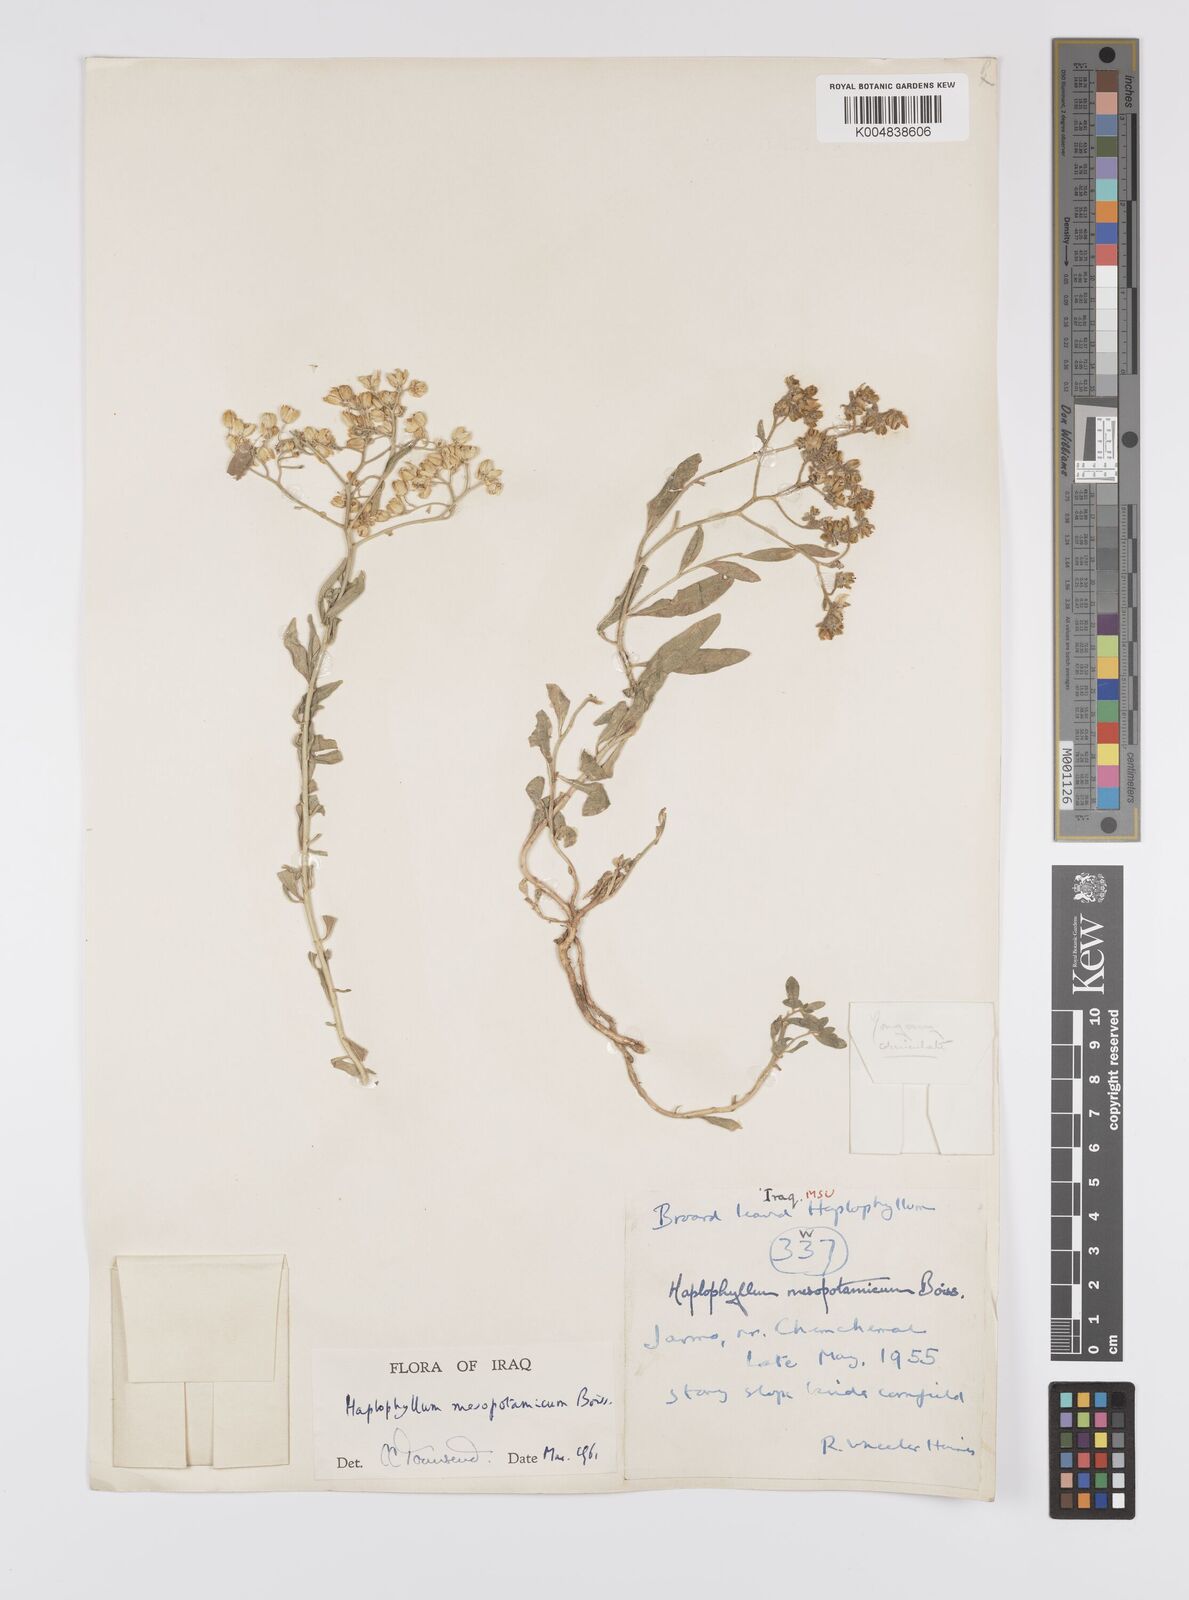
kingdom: Plantae
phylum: Tracheophyta
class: Magnoliopsida
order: Sapindales
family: Rutaceae
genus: Haplophyllum
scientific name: Haplophyllum buxbaumii
